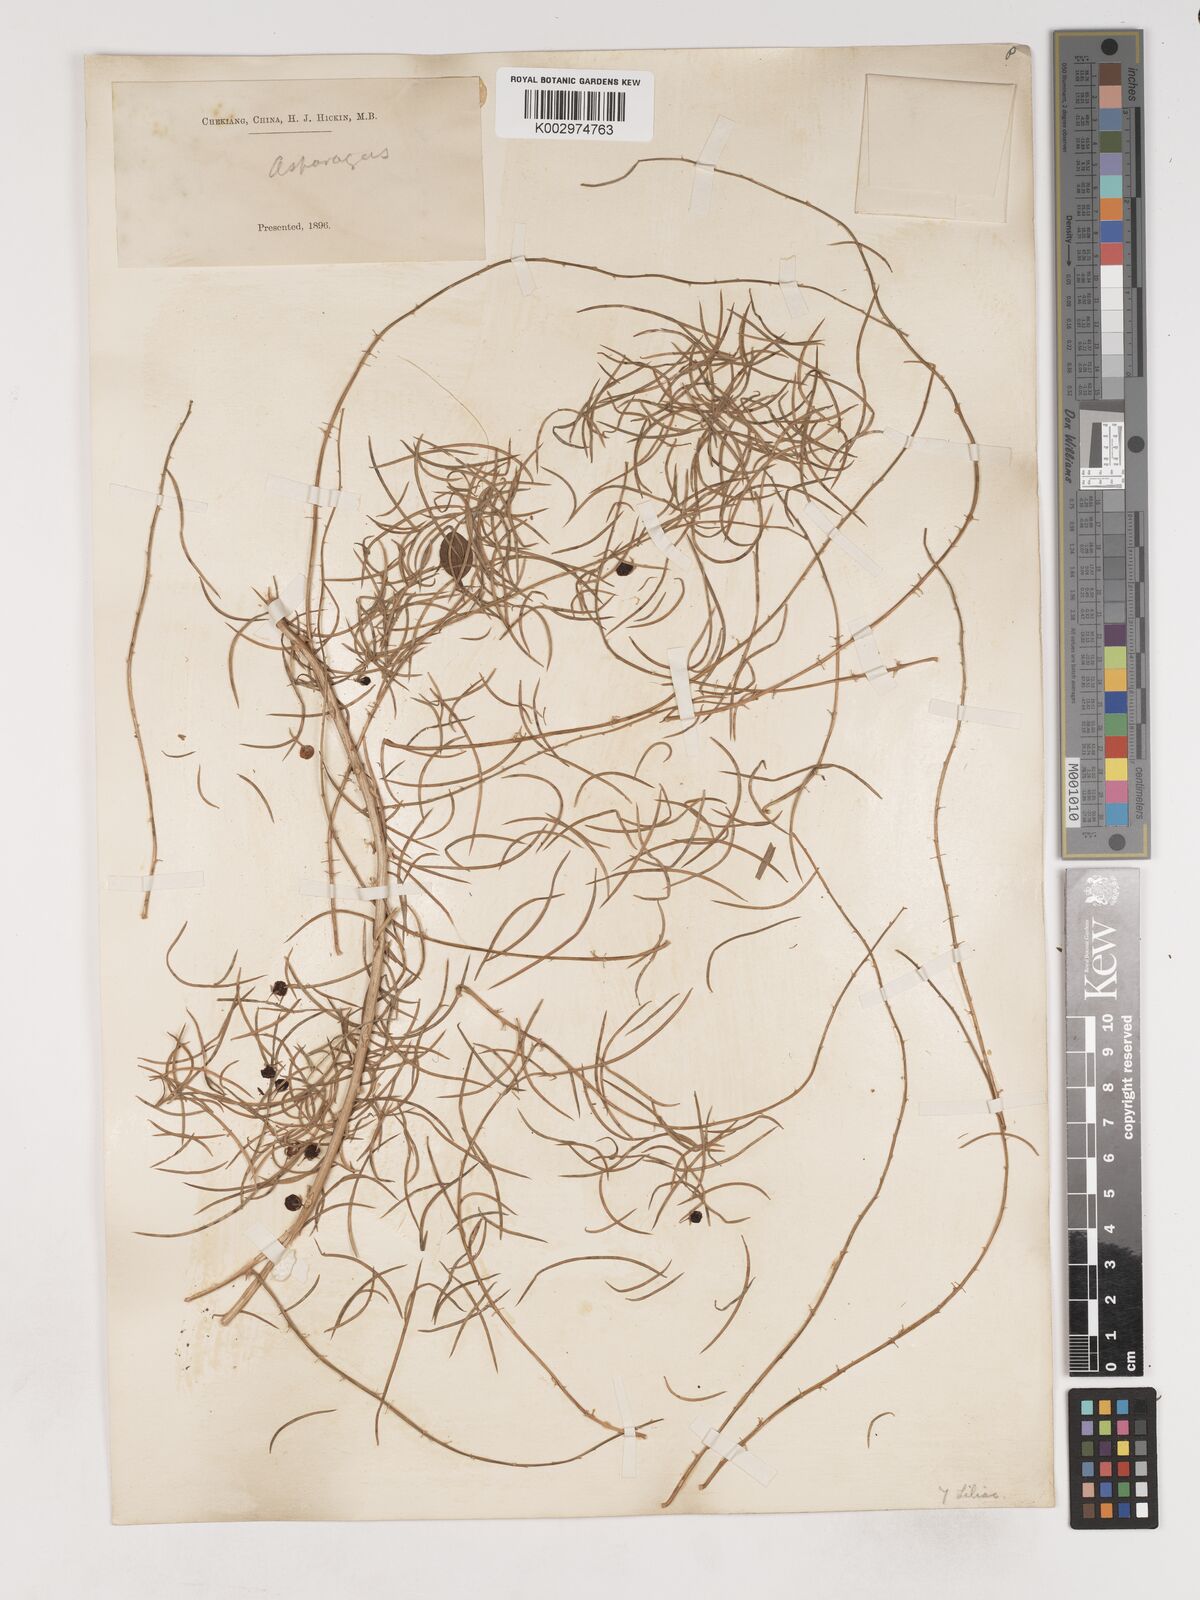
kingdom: Plantae
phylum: Tracheophyta
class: Liliopsida
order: Asparagales
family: Asparagaceae
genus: Asparagus
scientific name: Asparagus cochinchinensis
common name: Chinese asparagus
